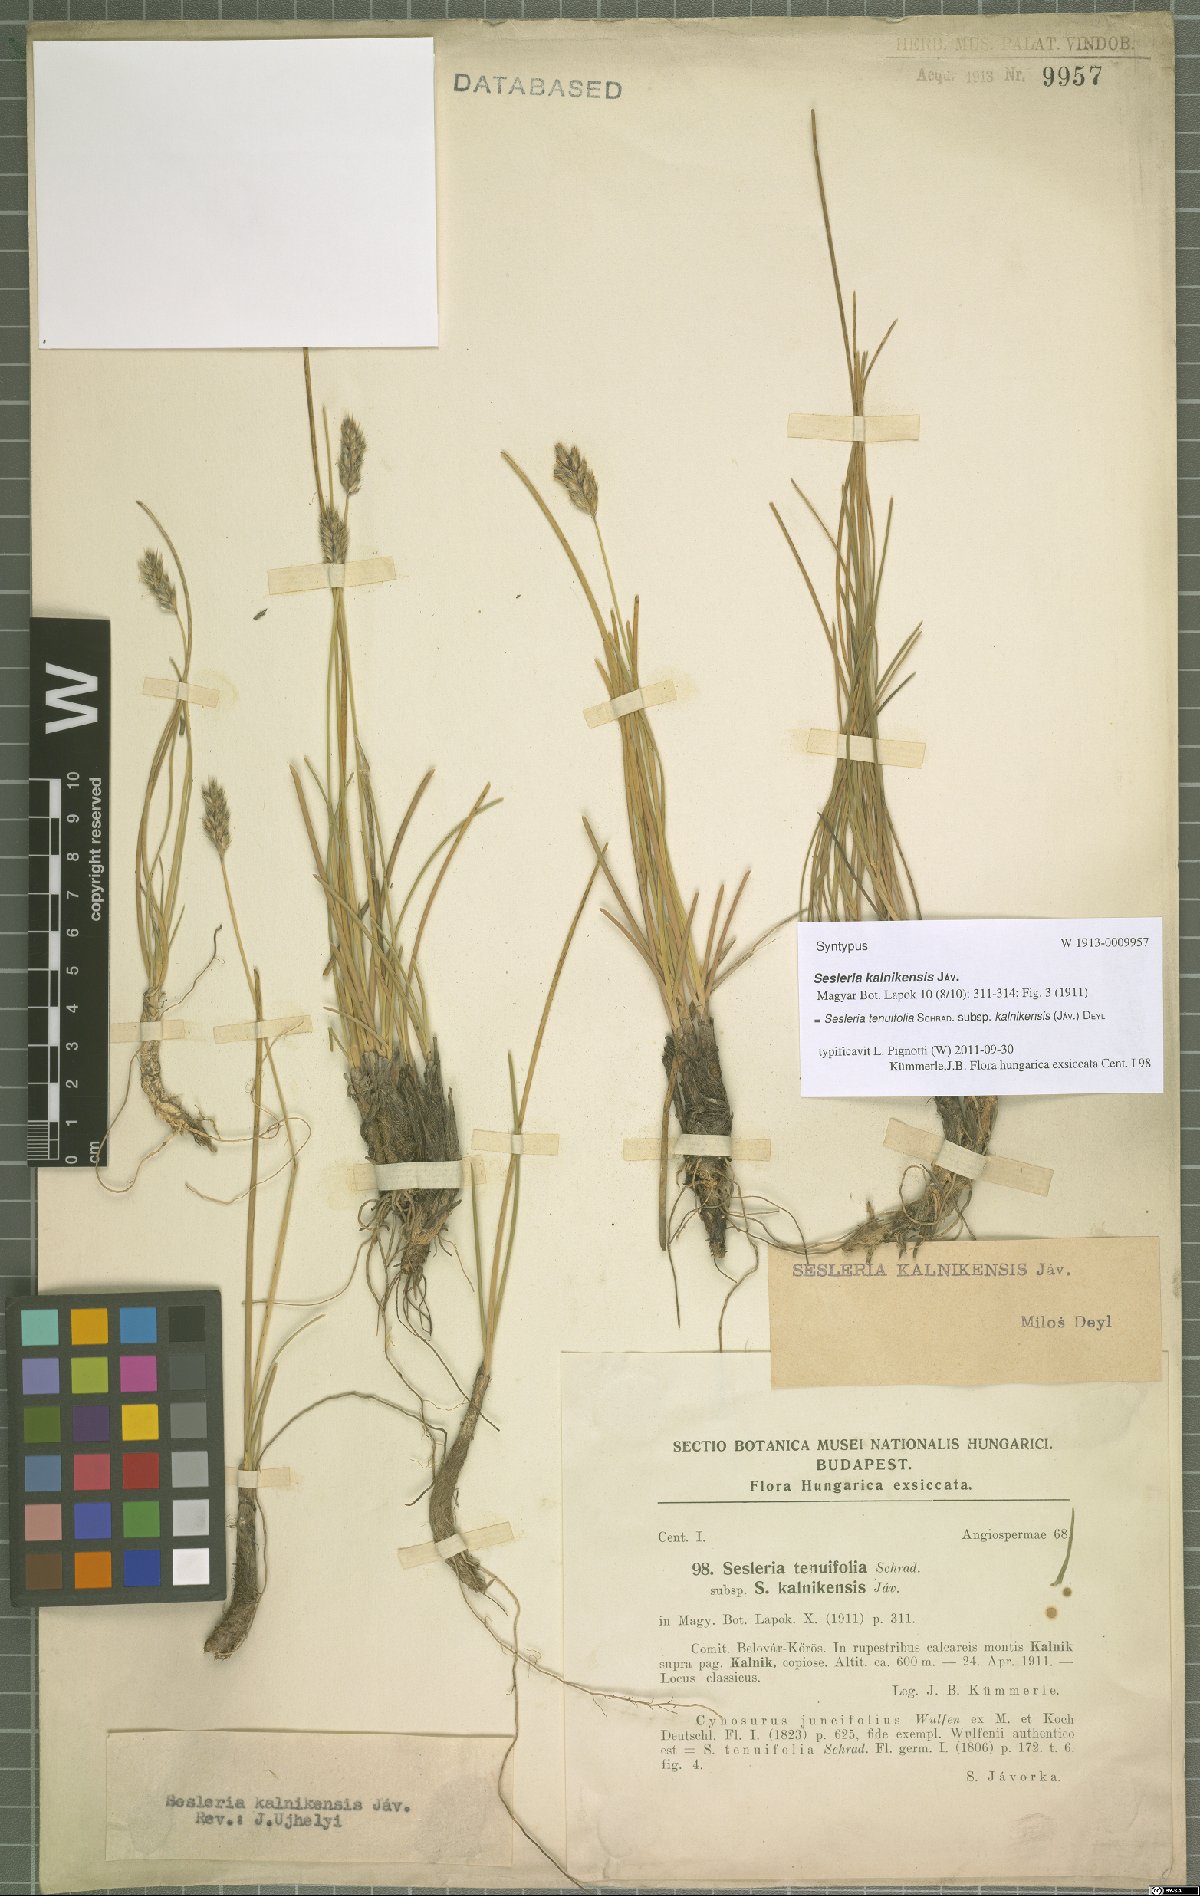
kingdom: Plantae
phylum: Tracheophyta
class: Liliopsida
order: Poales
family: Poaceae
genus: Sesleria
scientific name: Sesleria juncifolia
